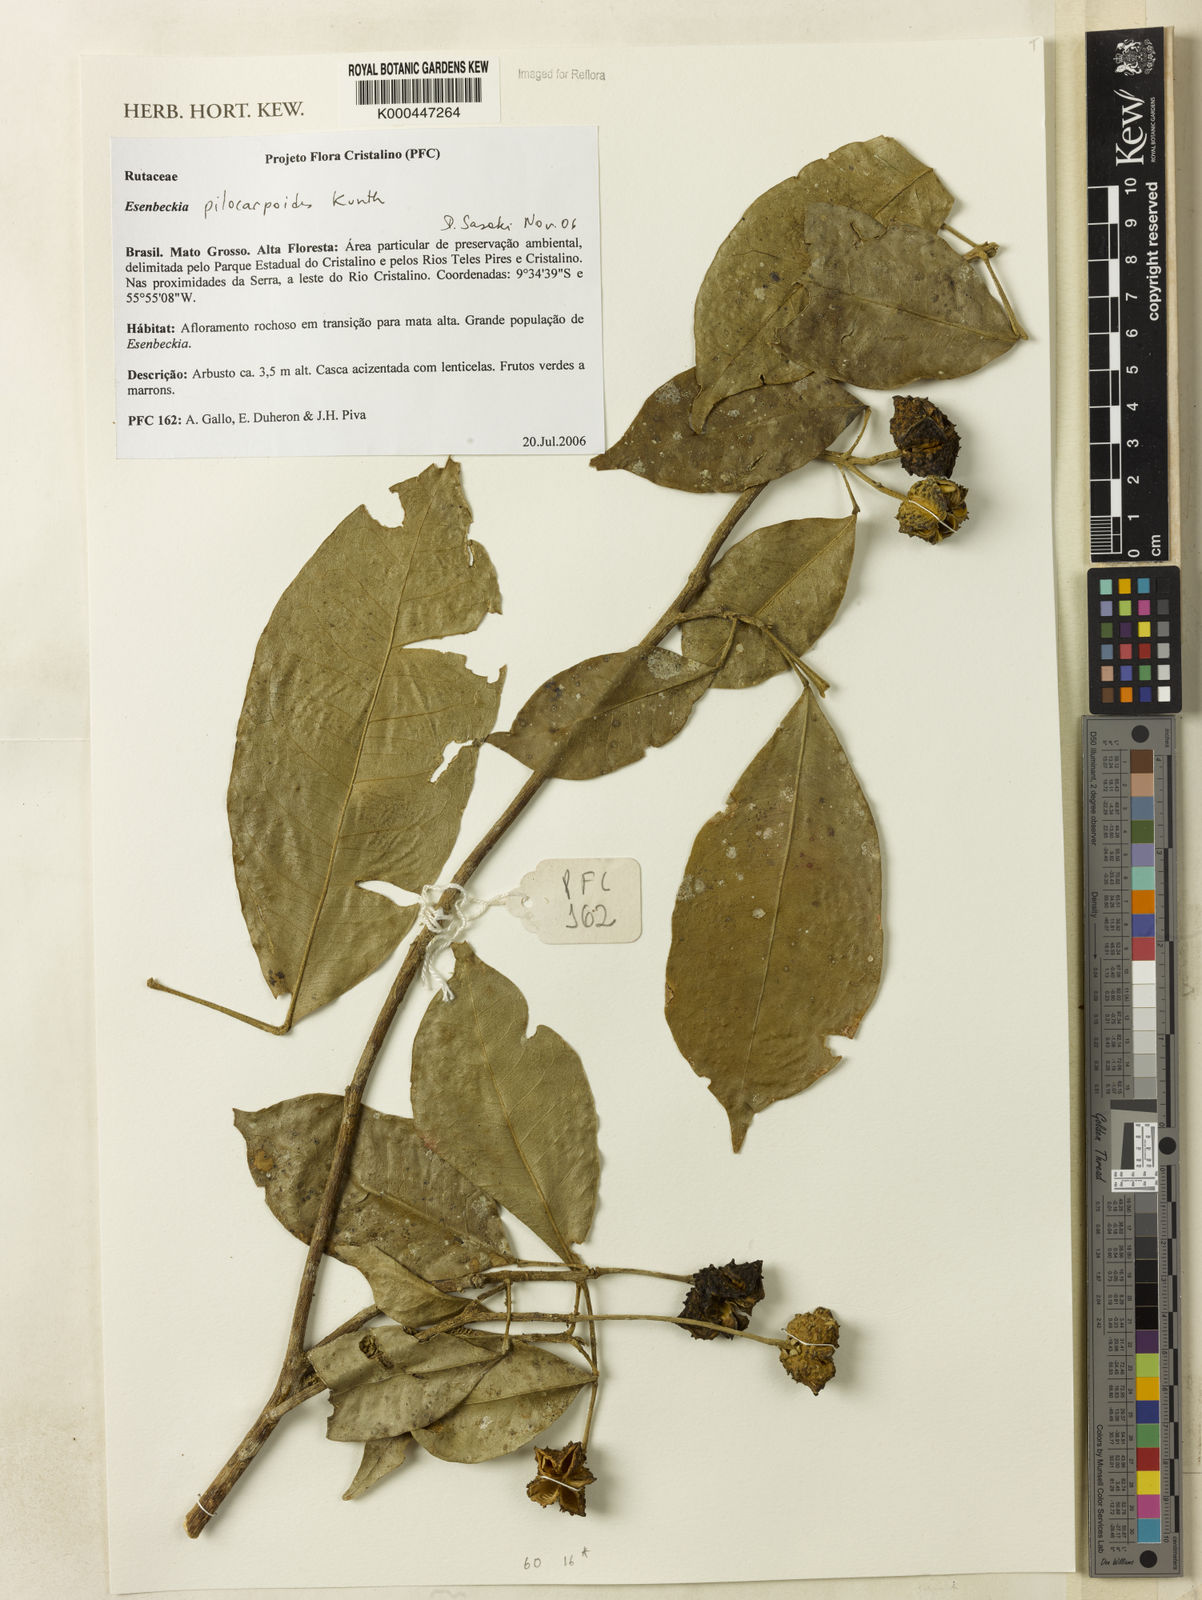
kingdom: Plantae
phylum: Tracheophyta
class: Magnoliopsida
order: Sapindales
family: Rutaceae
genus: Esenbeckia
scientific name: Esenbeckia pilocarpoides
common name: Pilosefruit esenbeckia
